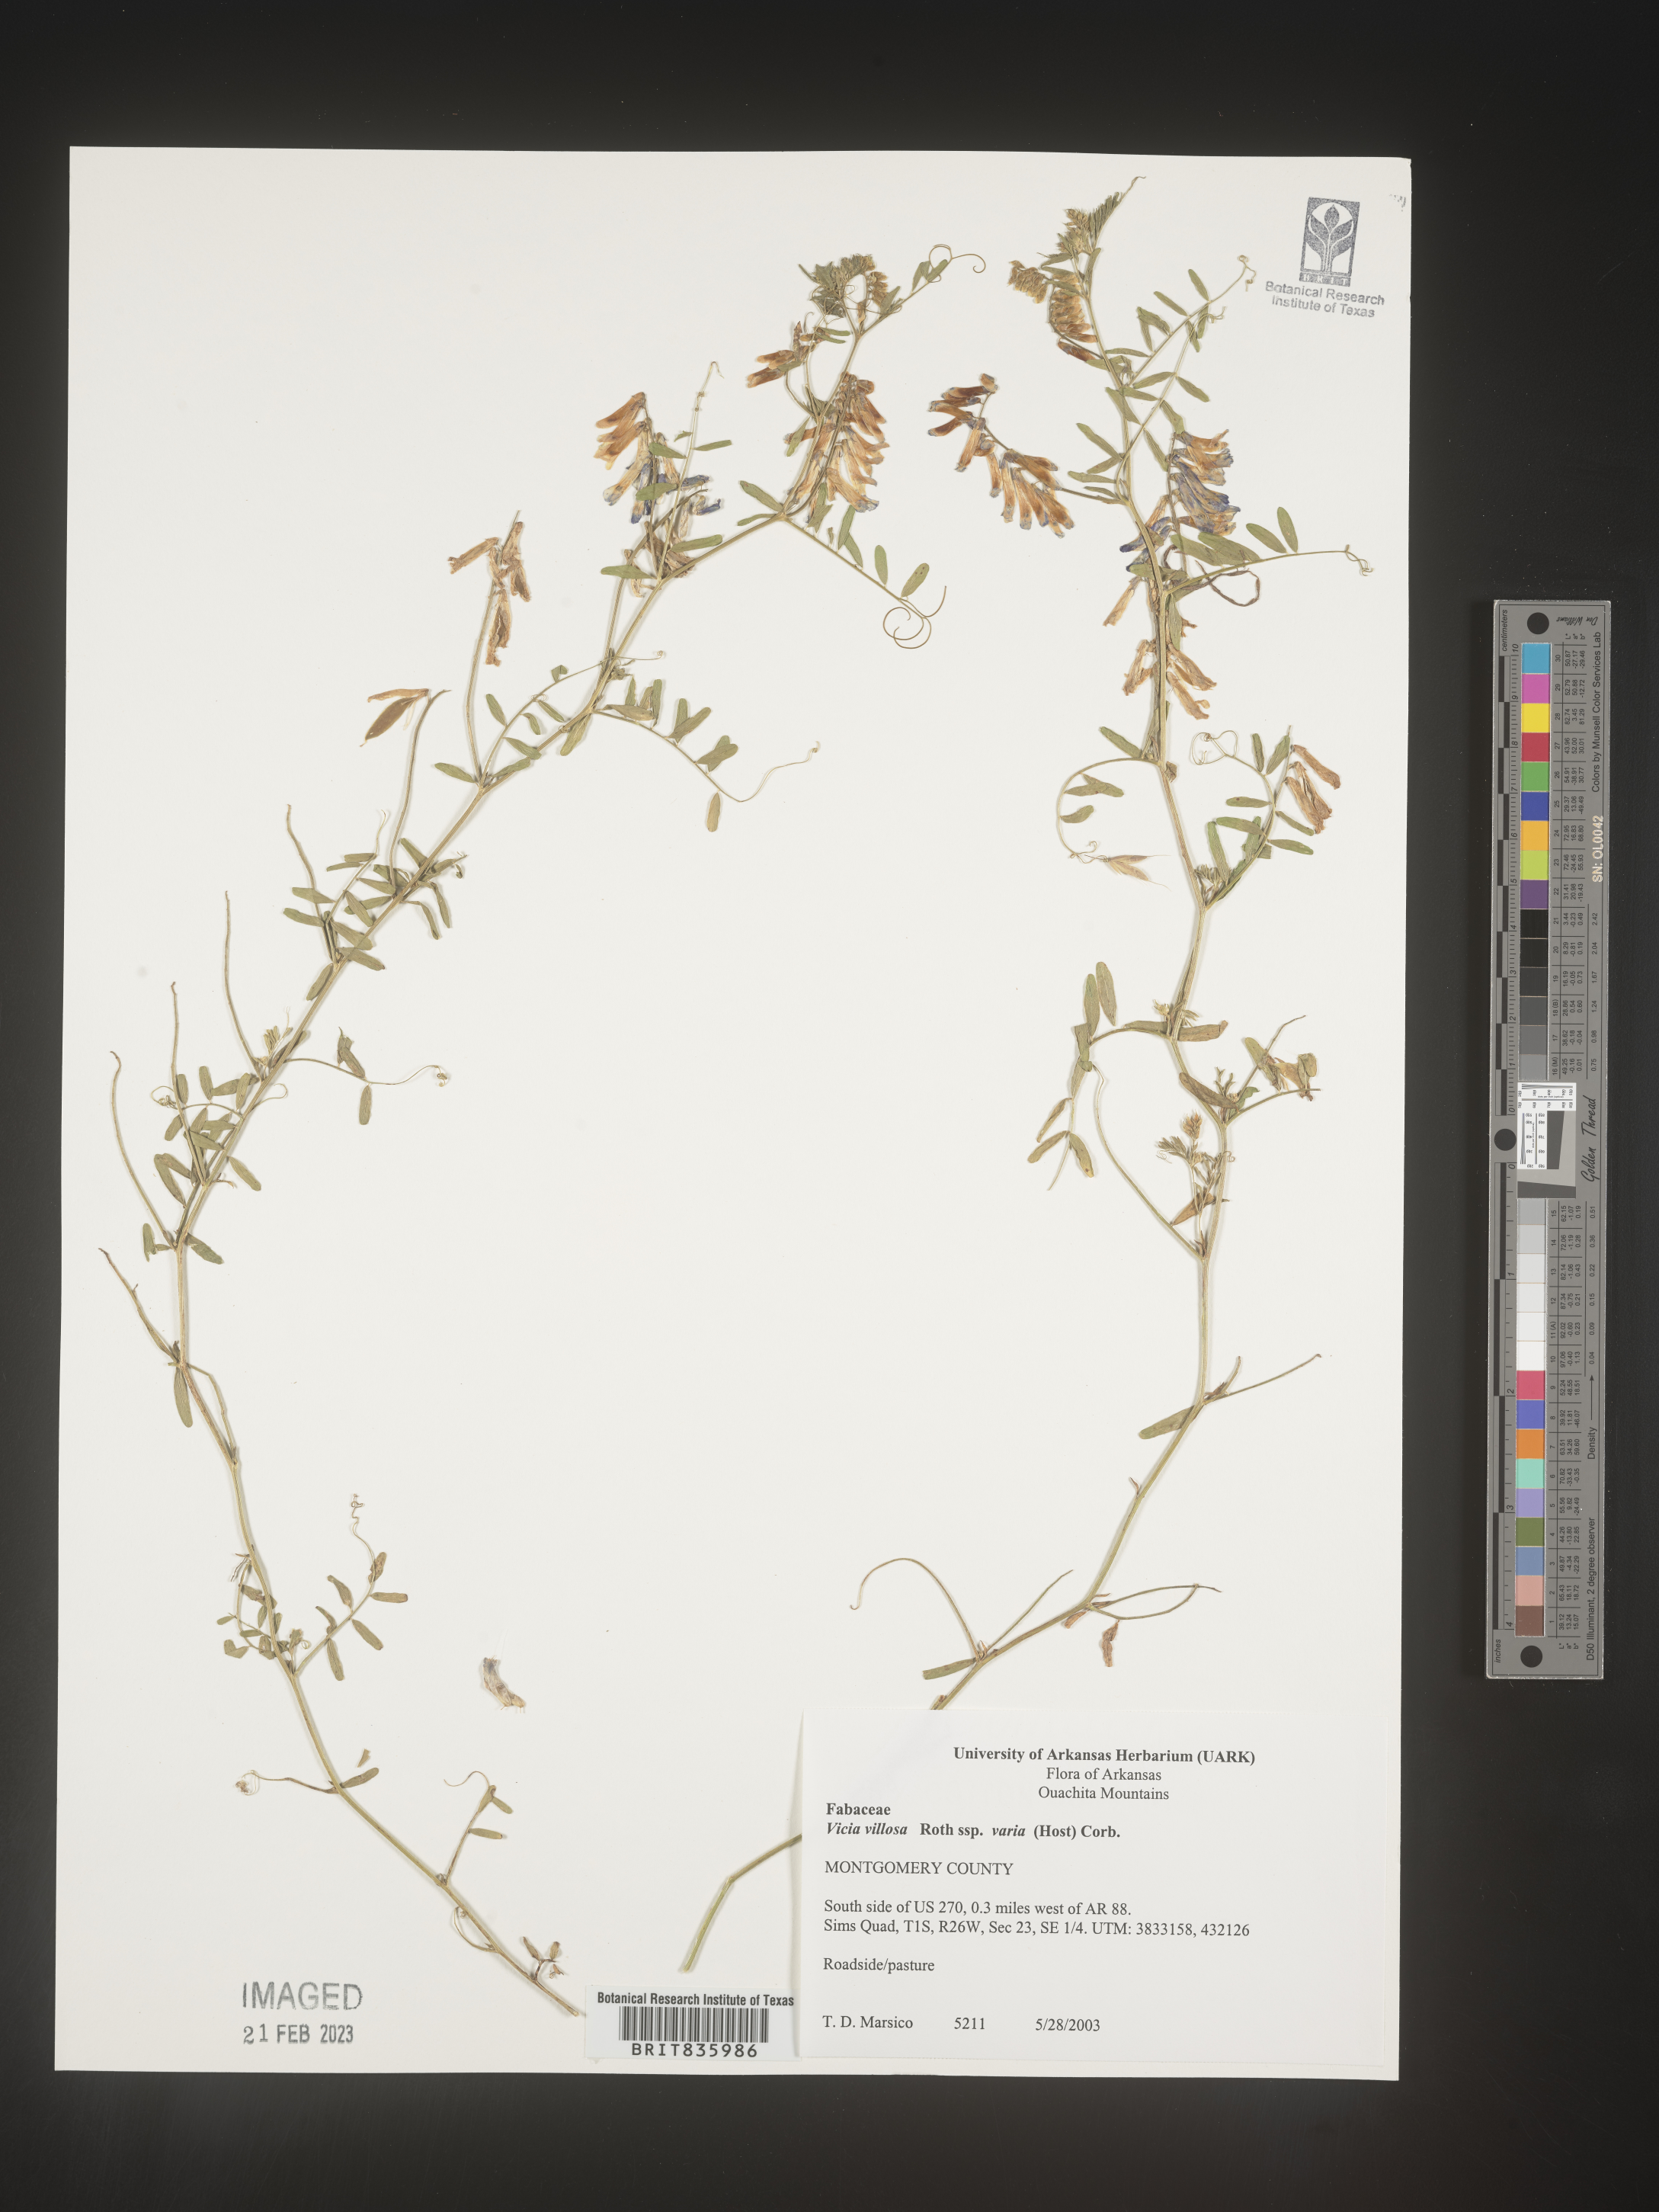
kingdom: Plantae
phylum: Tracheophyta
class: Magnoliopsida
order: Fabales
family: Fabaceae
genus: Vicia
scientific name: Vicia villosa
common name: Fodder vetch
